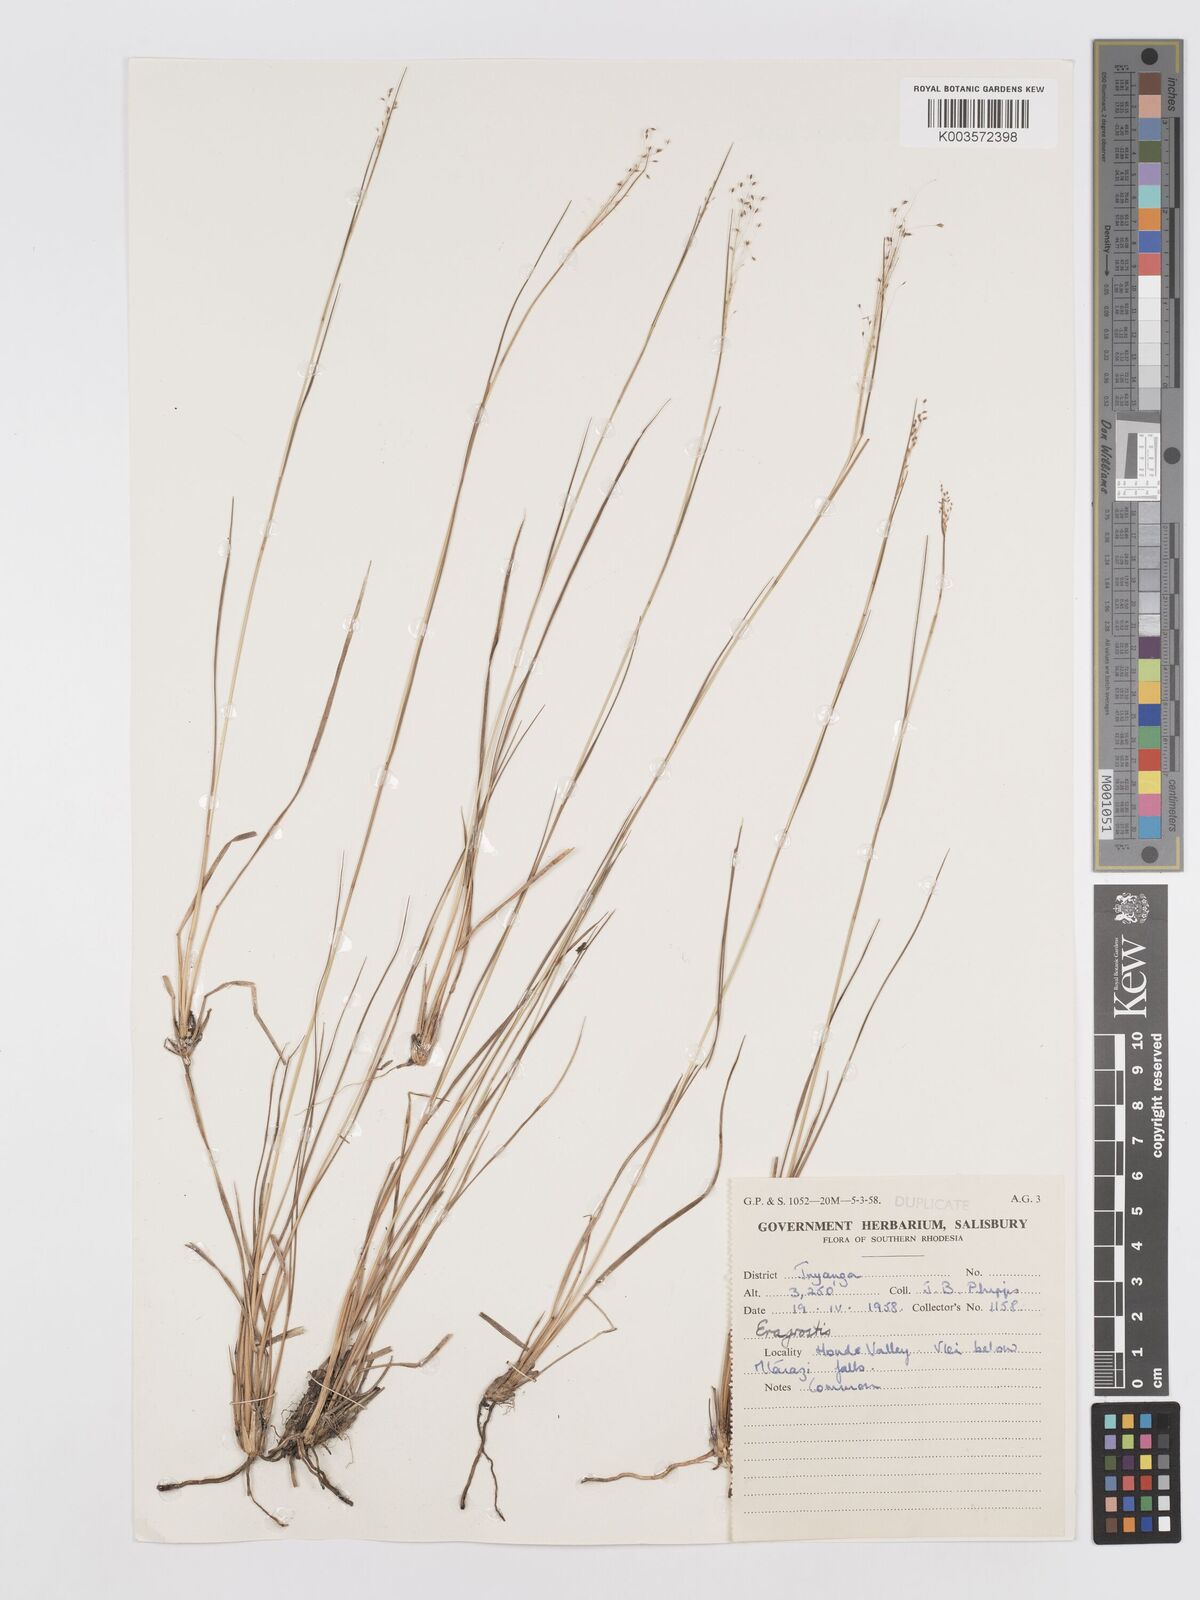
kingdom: Plantae
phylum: Tracheophyta
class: Liliopsida
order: Poales
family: Poaceae
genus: Eragrostis
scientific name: Eragrostis
